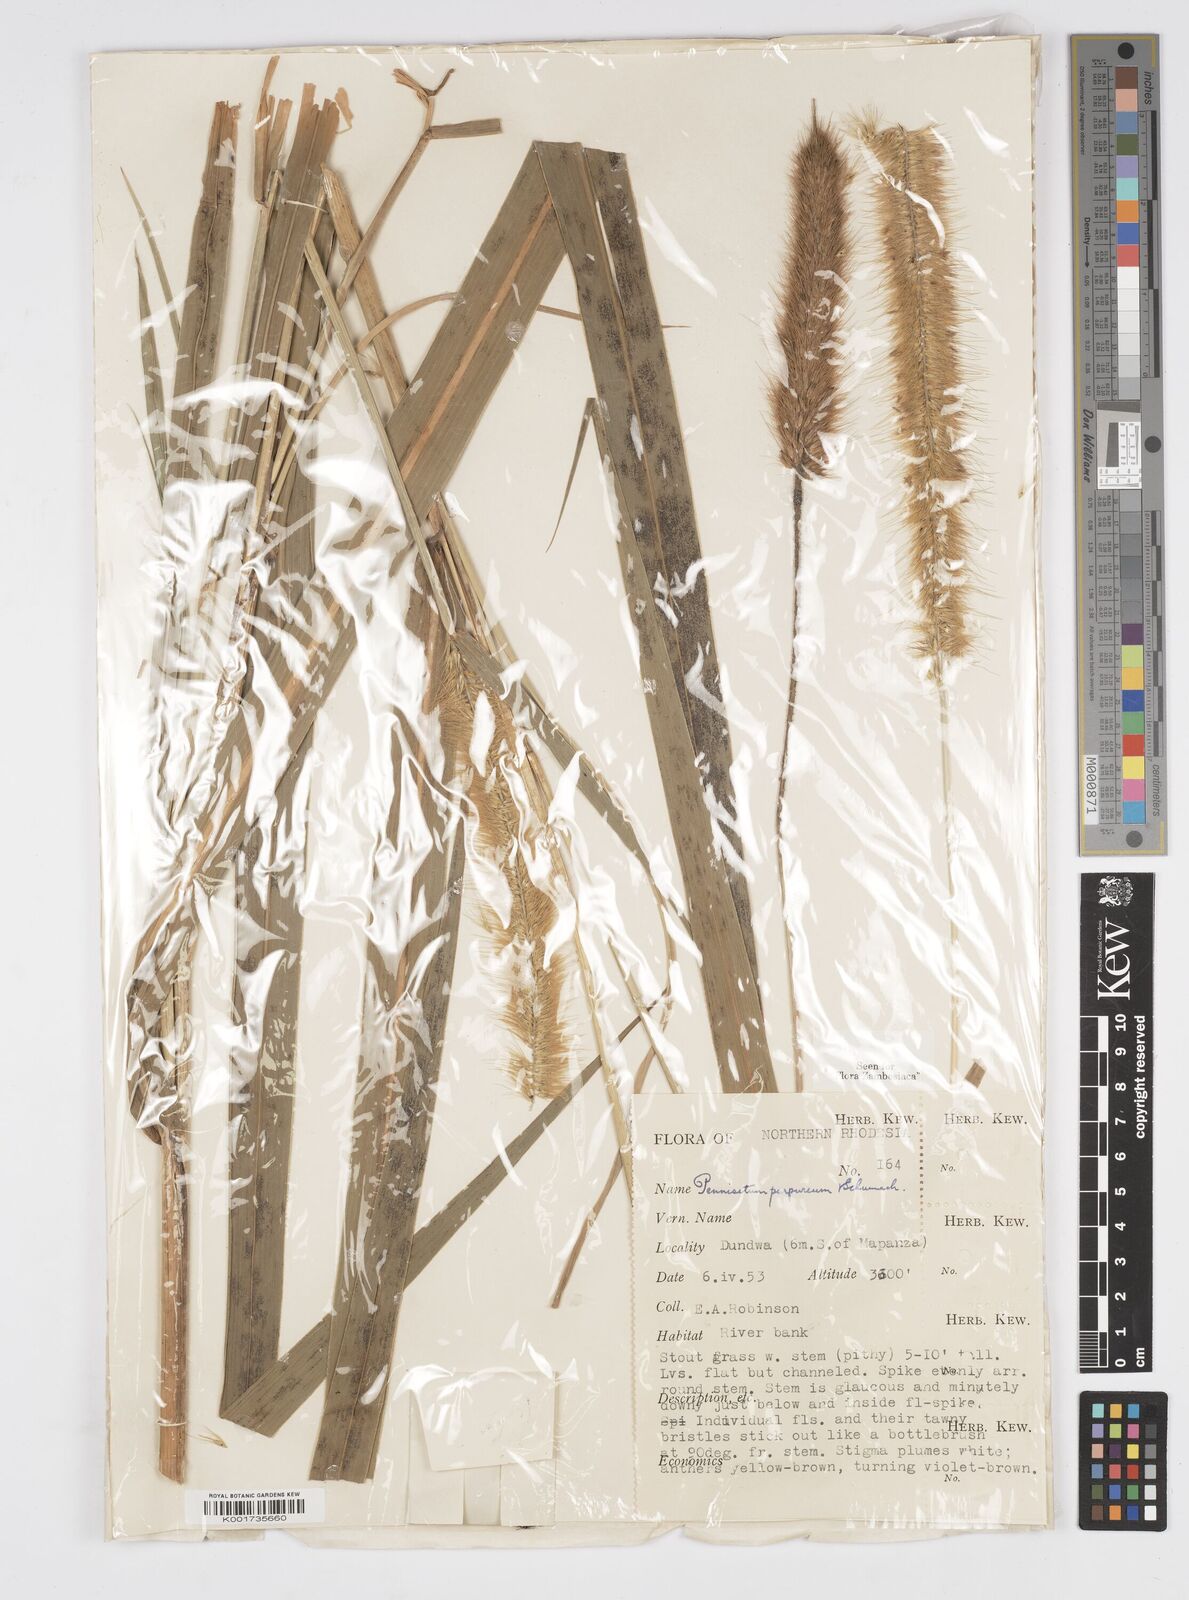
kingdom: Plantae
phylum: Tracheophyta
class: Liliopsida
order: Poales
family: Poaceae
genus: Cenchrus
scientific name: Cenchrus purpureus
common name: Elephant grass
